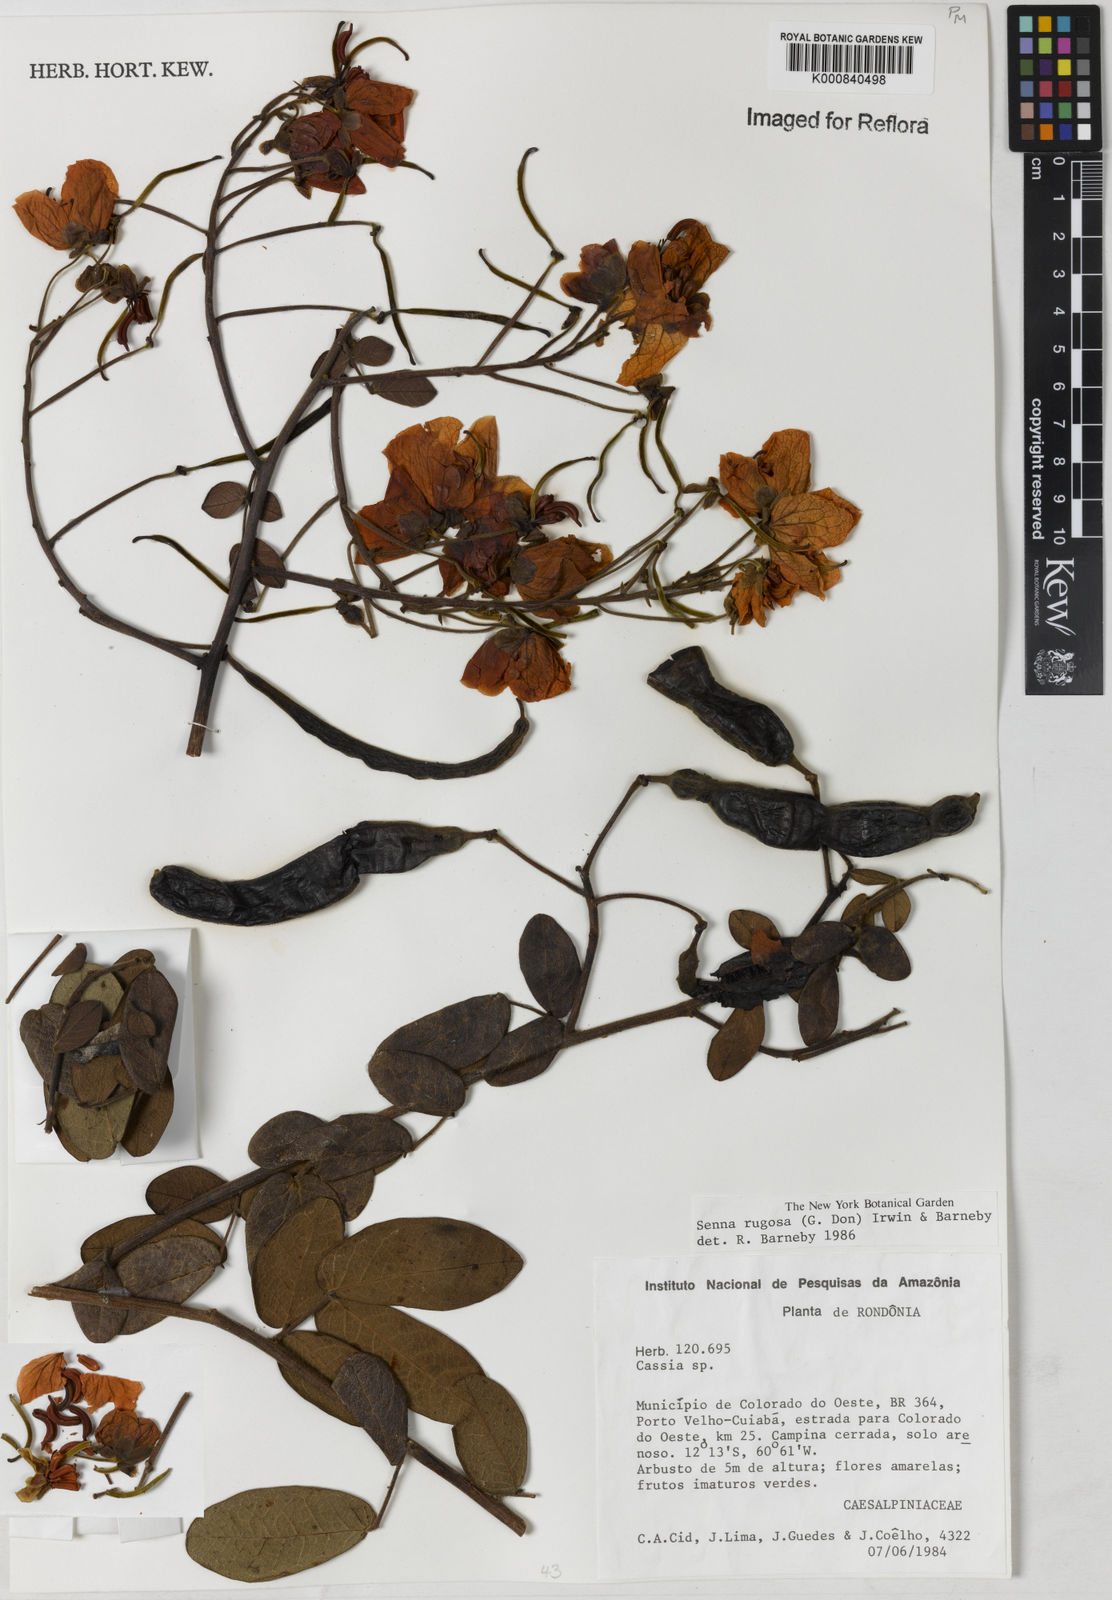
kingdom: Plantae
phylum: Tracheophyta
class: Magnoliopsida
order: Fabales
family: Fabaceae
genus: Senna
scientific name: Senna rugosa
